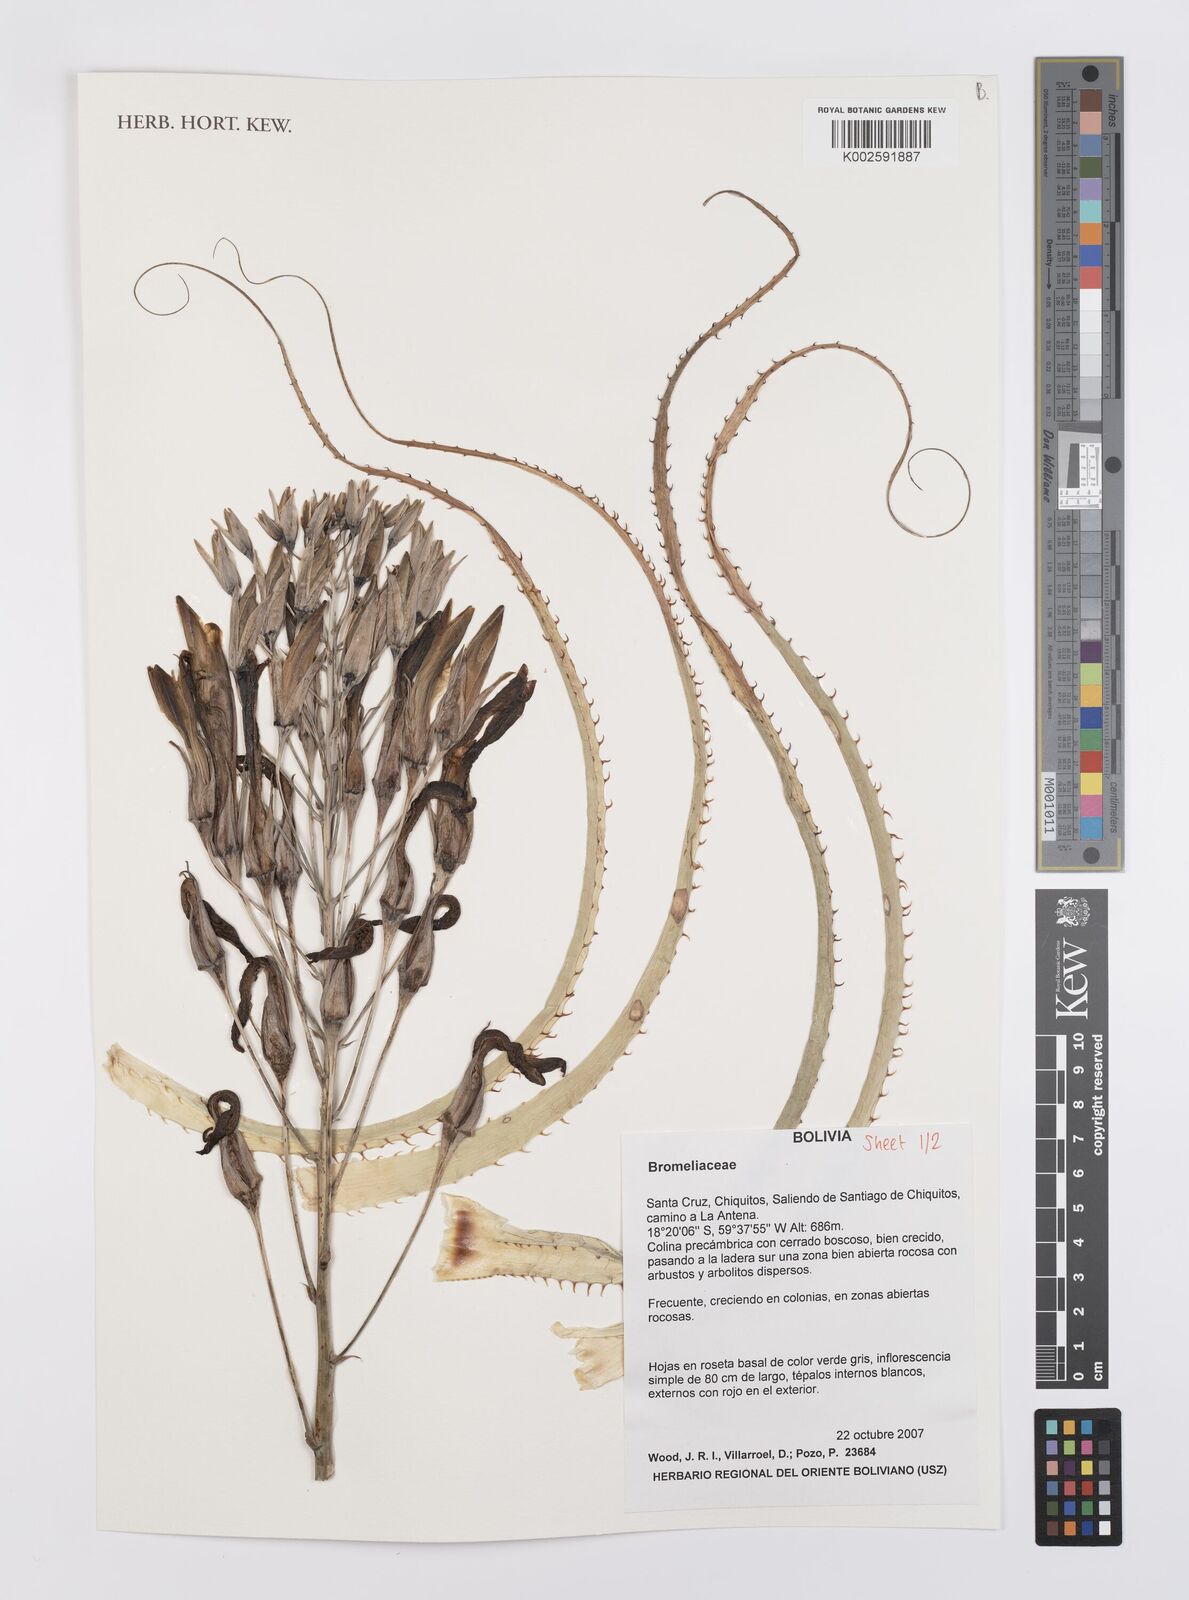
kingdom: Plantae
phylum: Tracheophyta
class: Liliopsida
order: Poales
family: Bromeliaceae
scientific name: Bromeliaceae
